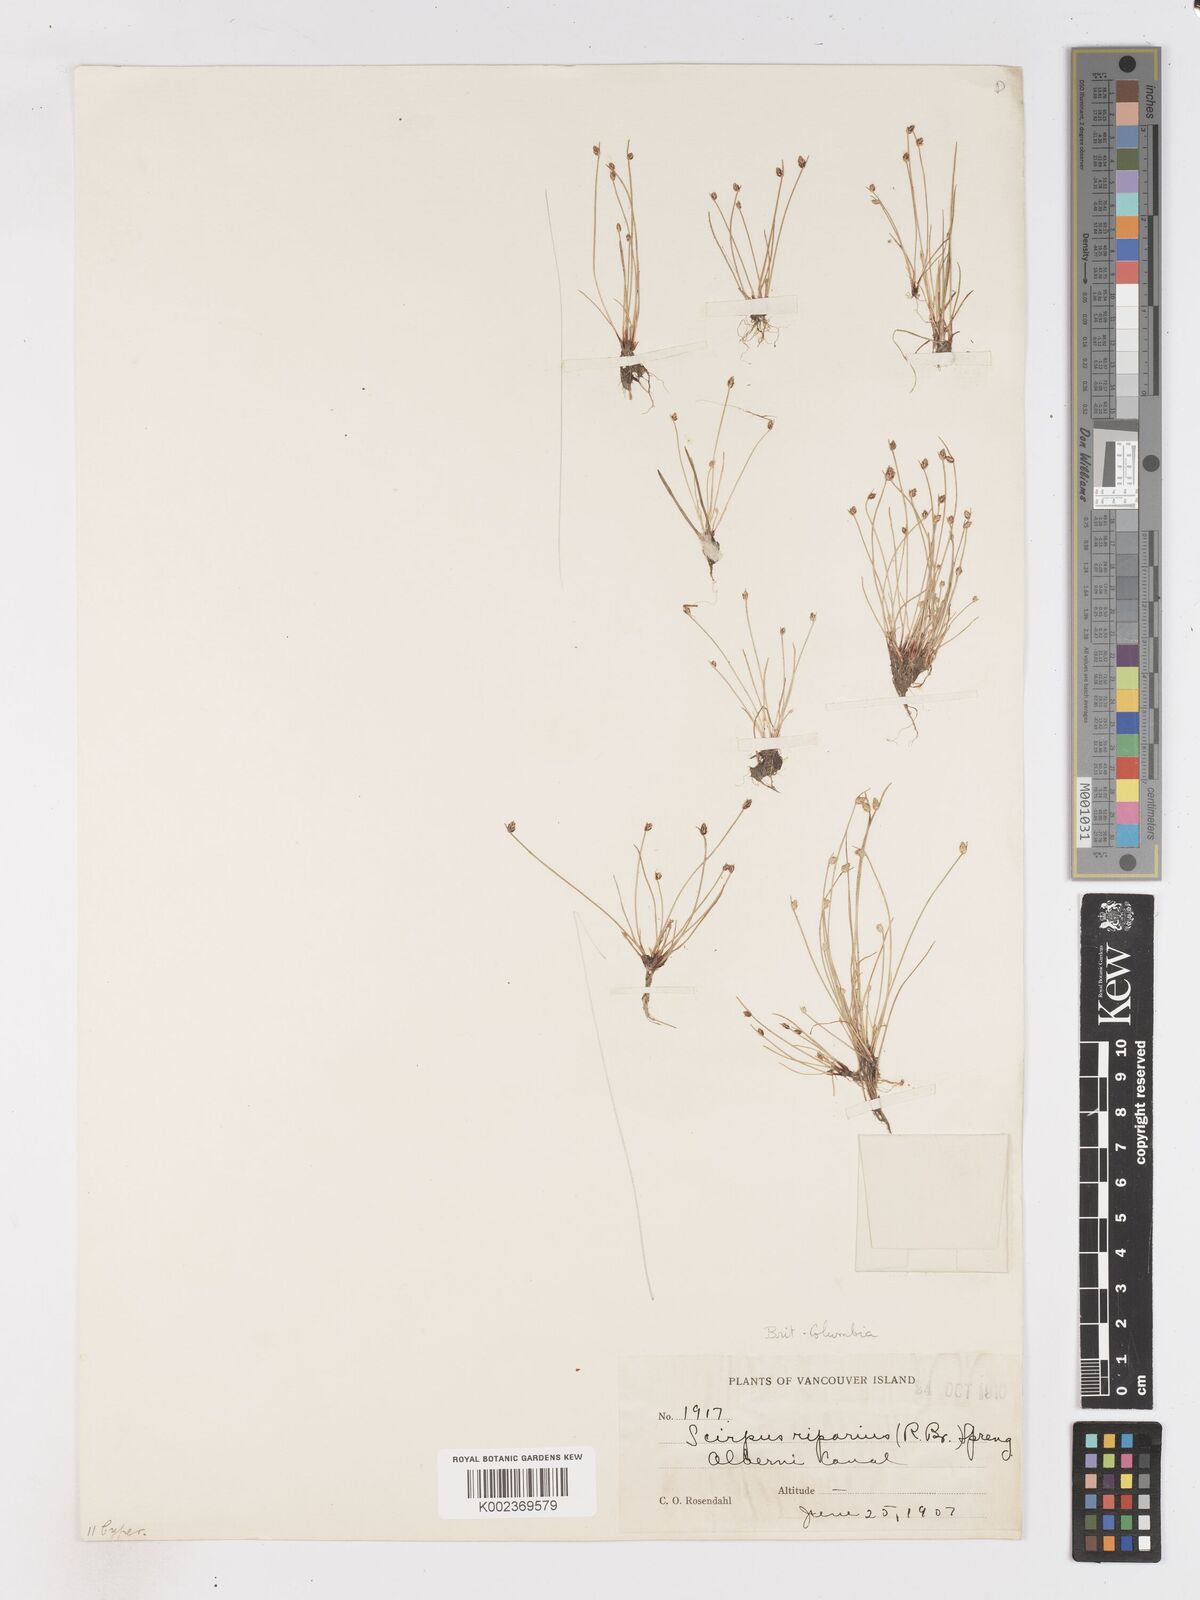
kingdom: Plantae
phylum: Tracheophyta
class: Liliopsida
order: Poales
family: Cyperaceae
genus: Isolepis
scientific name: Isolepis cernua
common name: Slender club-rush
